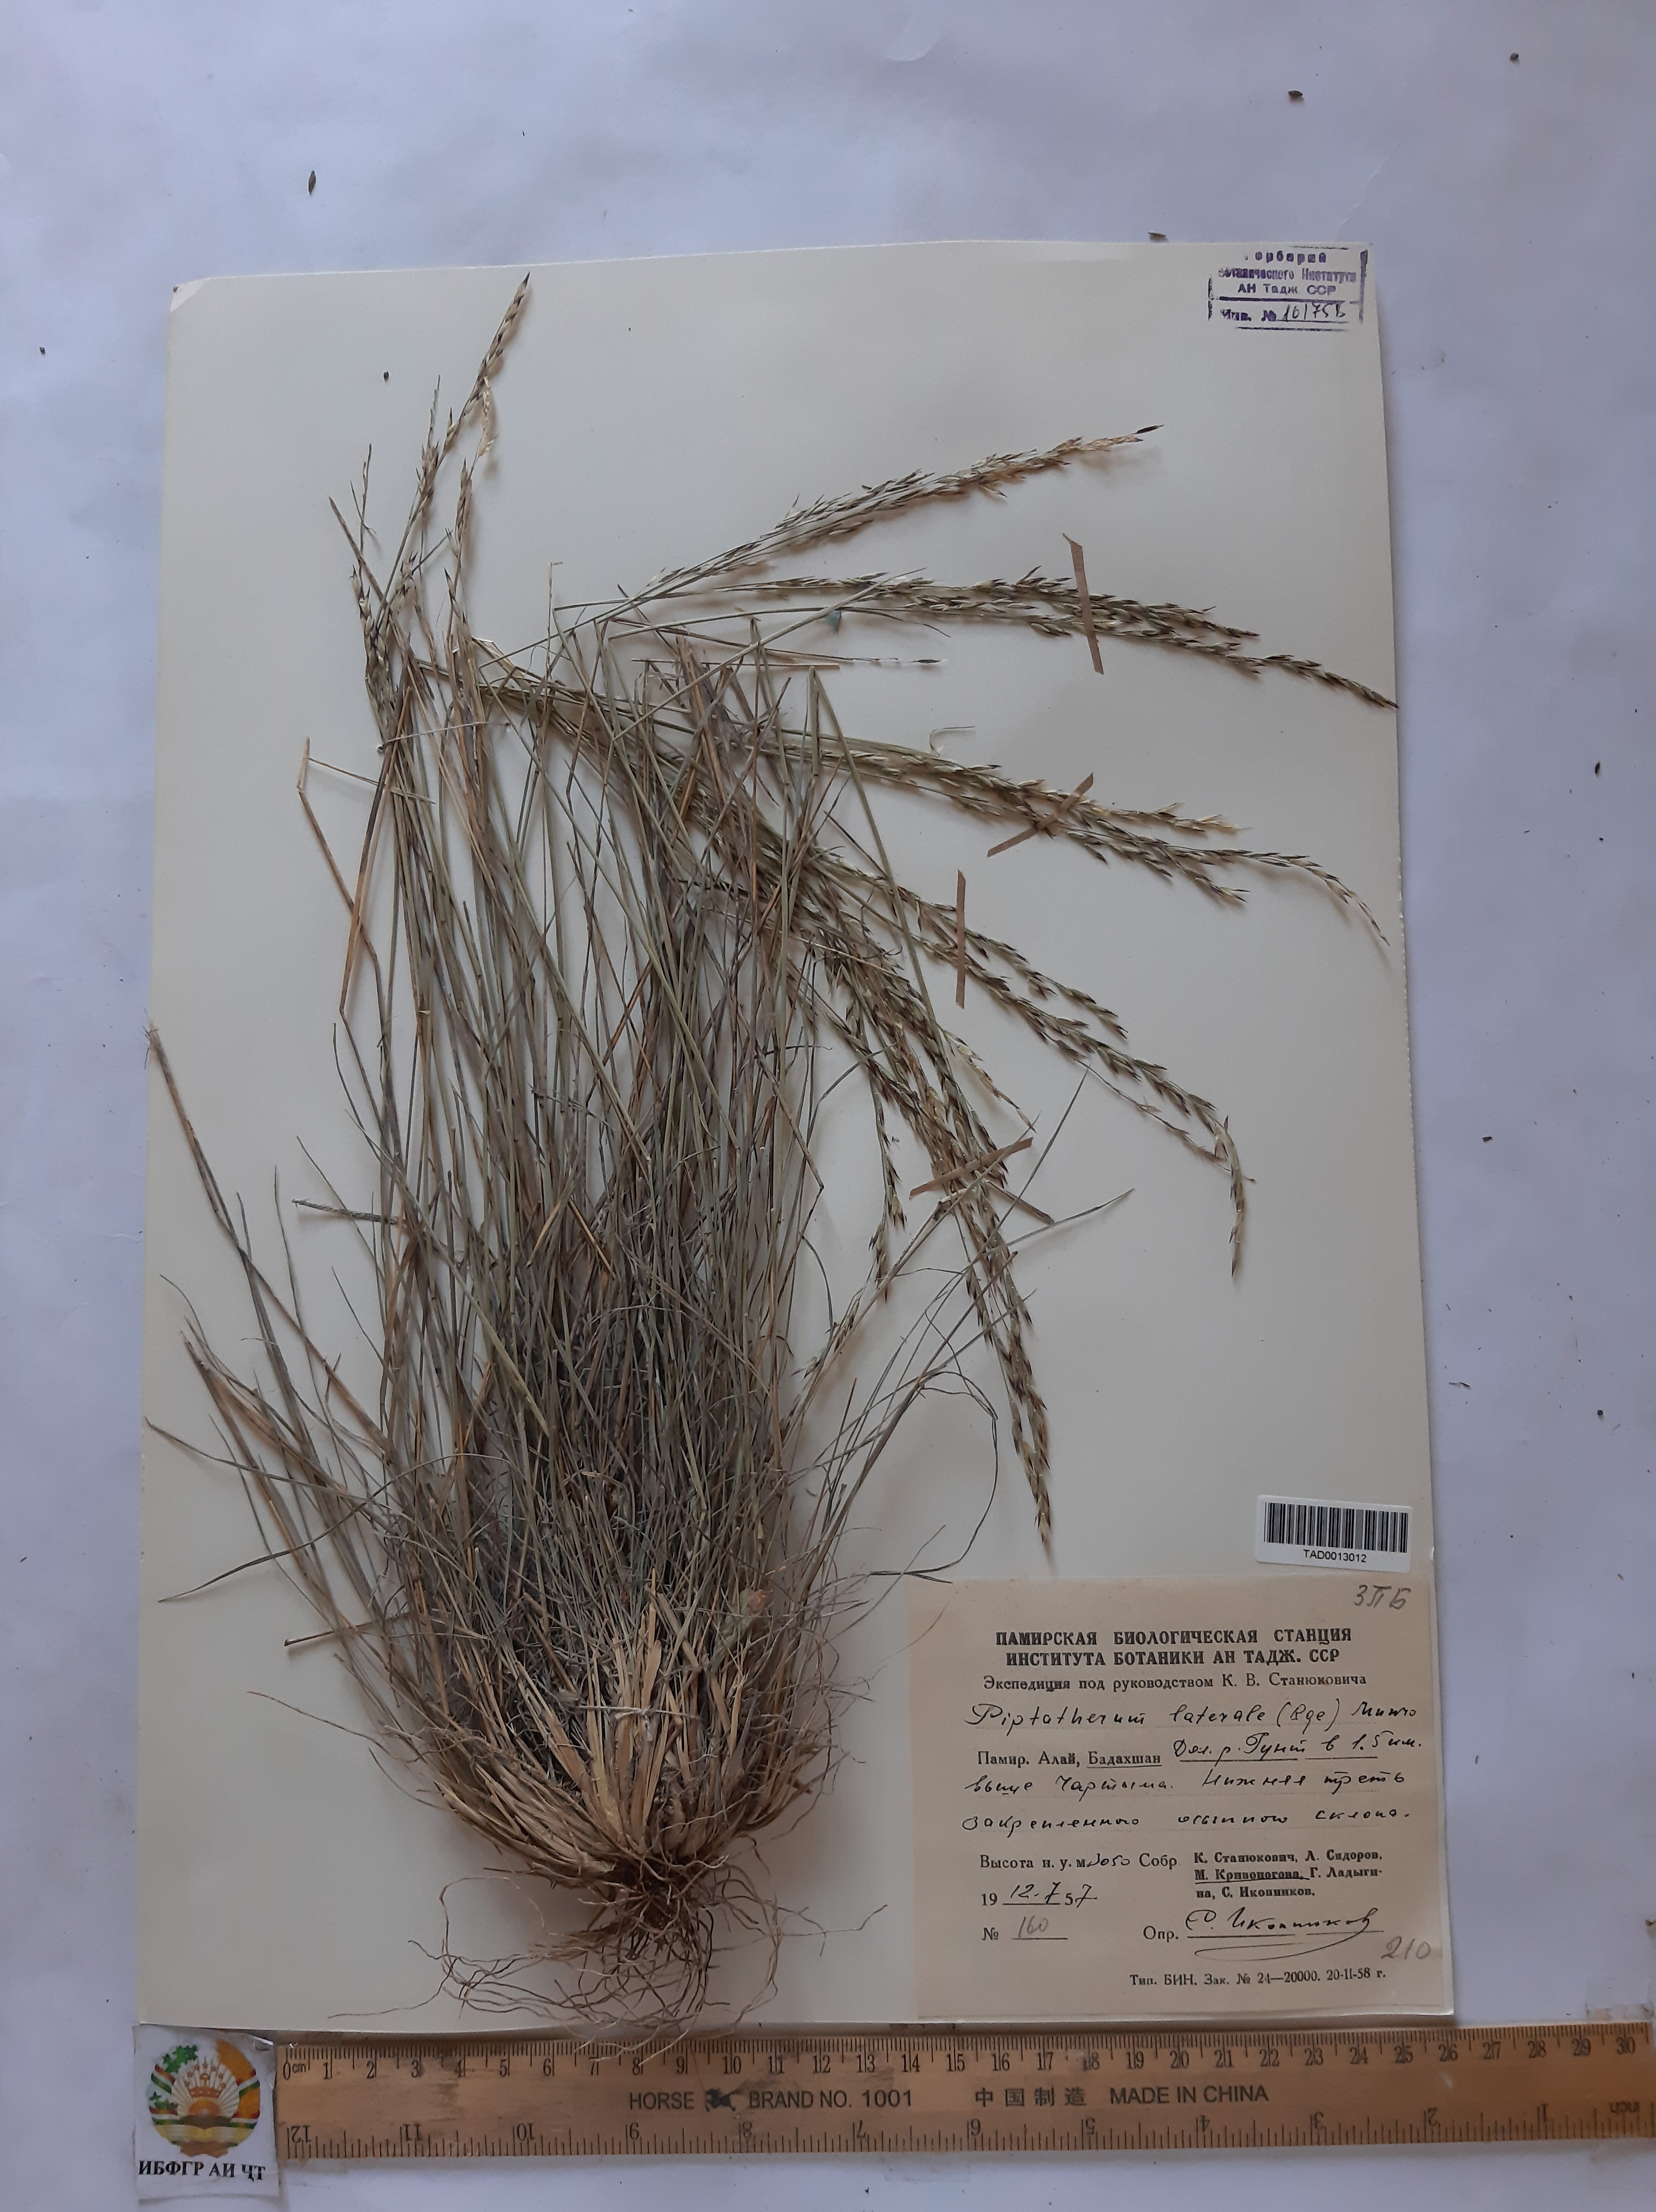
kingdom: Plantae
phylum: Tracheophyta
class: Liliopsida
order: Poales
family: Poaceae
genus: Piptatherum
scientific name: Piptatherum laterale
